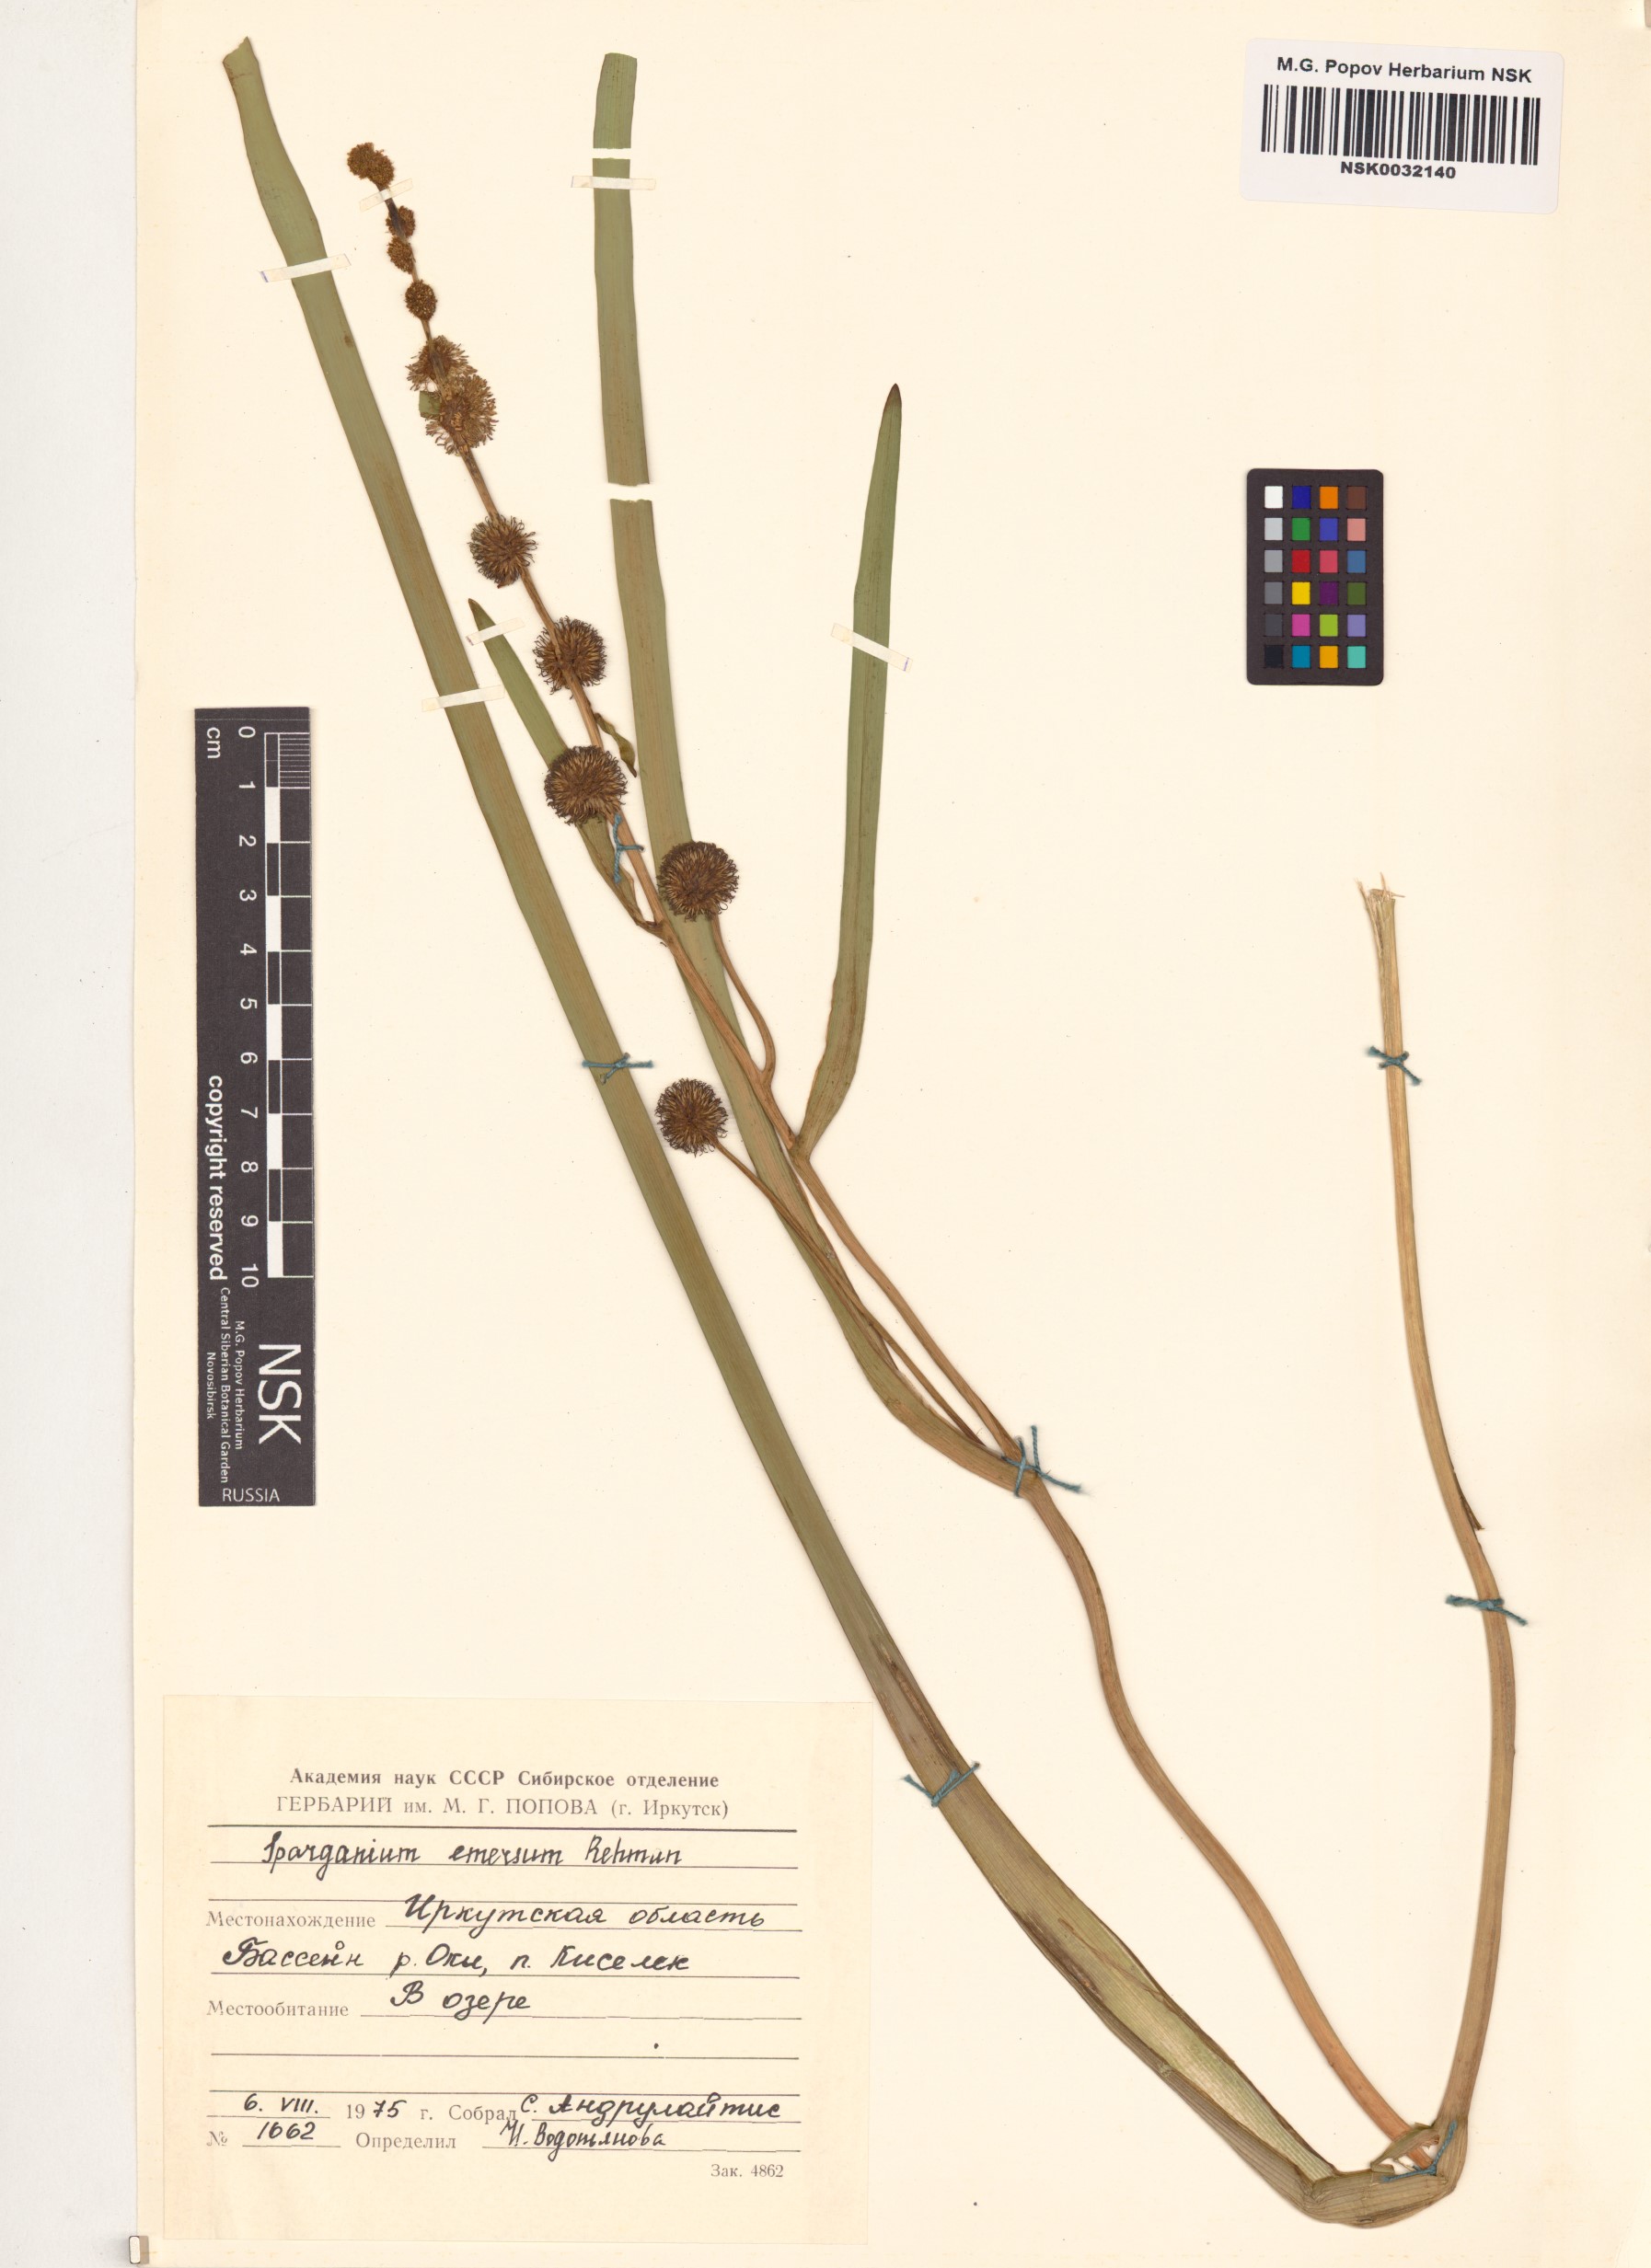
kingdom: Plantae
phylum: Tracheophyta
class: Liliopsida
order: Poales
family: Typhaceae
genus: Sparganium
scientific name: Sparganium emersum
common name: Unbranched bur-reed
